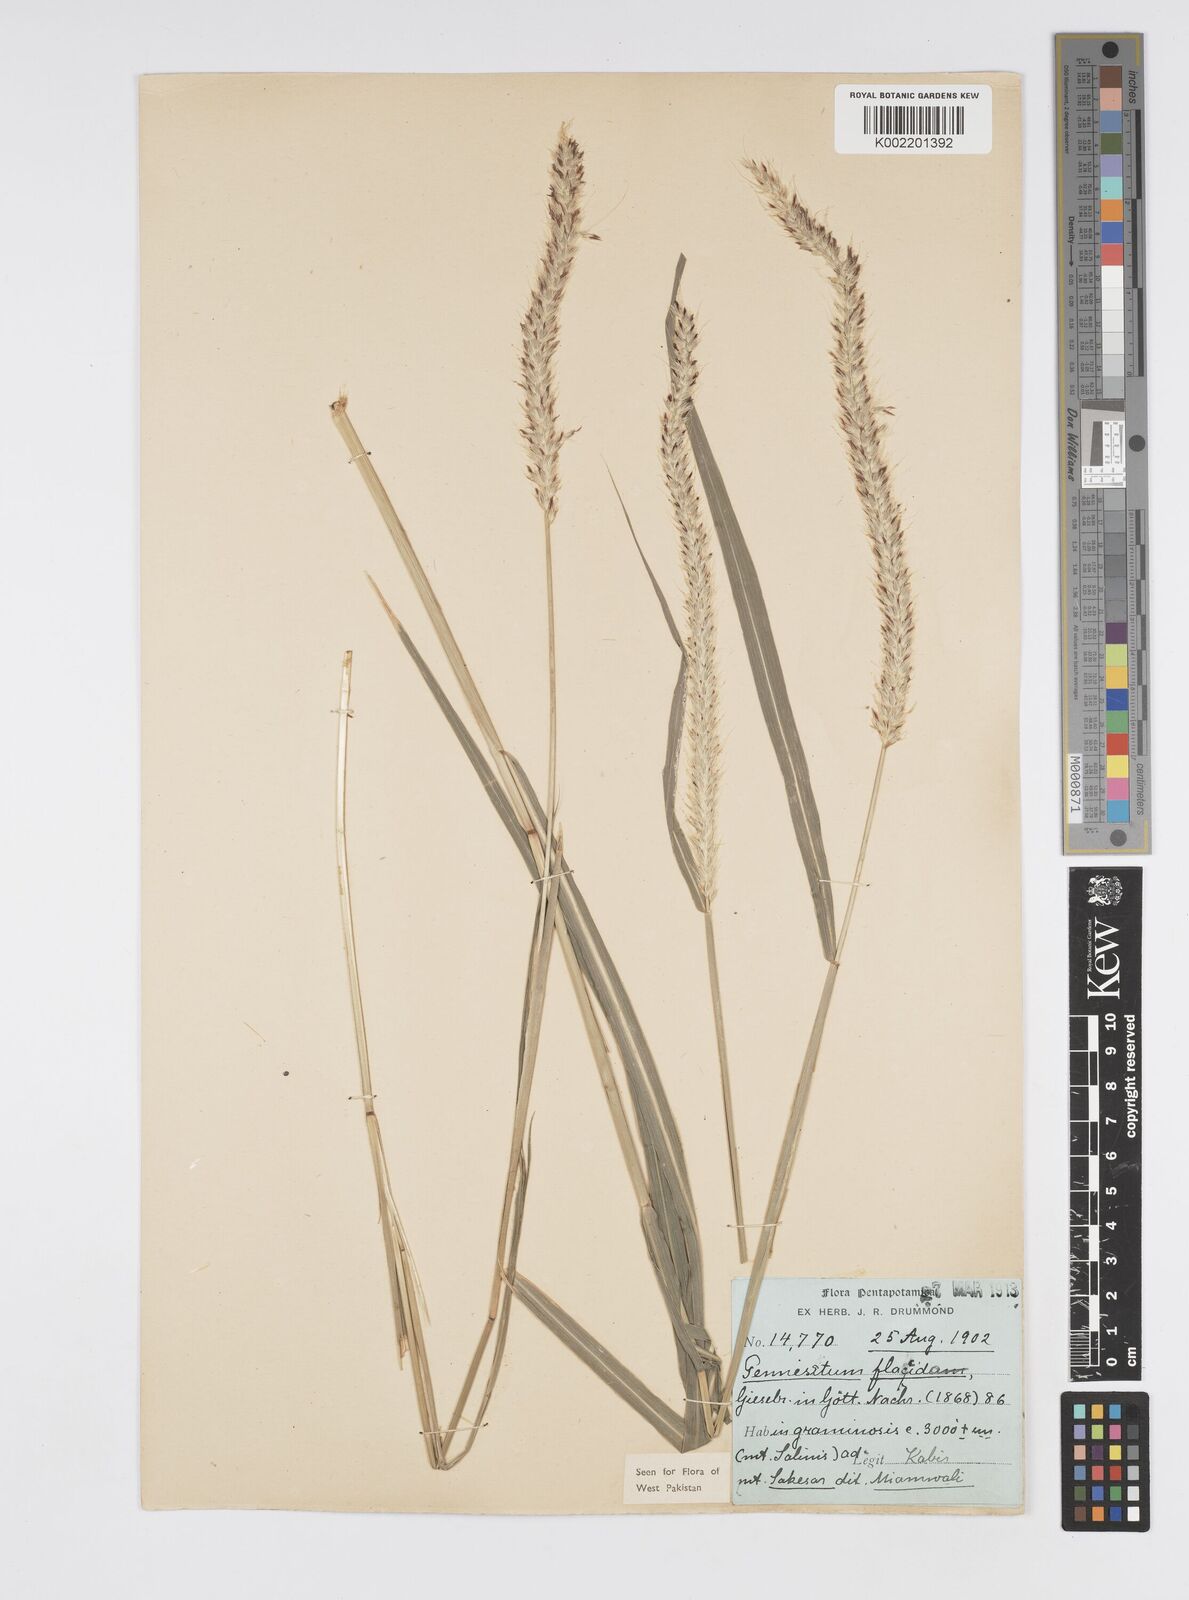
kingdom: Plantae
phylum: Tracheophyta
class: Liliopsida
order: Poales
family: Poaceae
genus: Cenchrus
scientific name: Cenchrus flaccidus
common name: Flaccid grass
